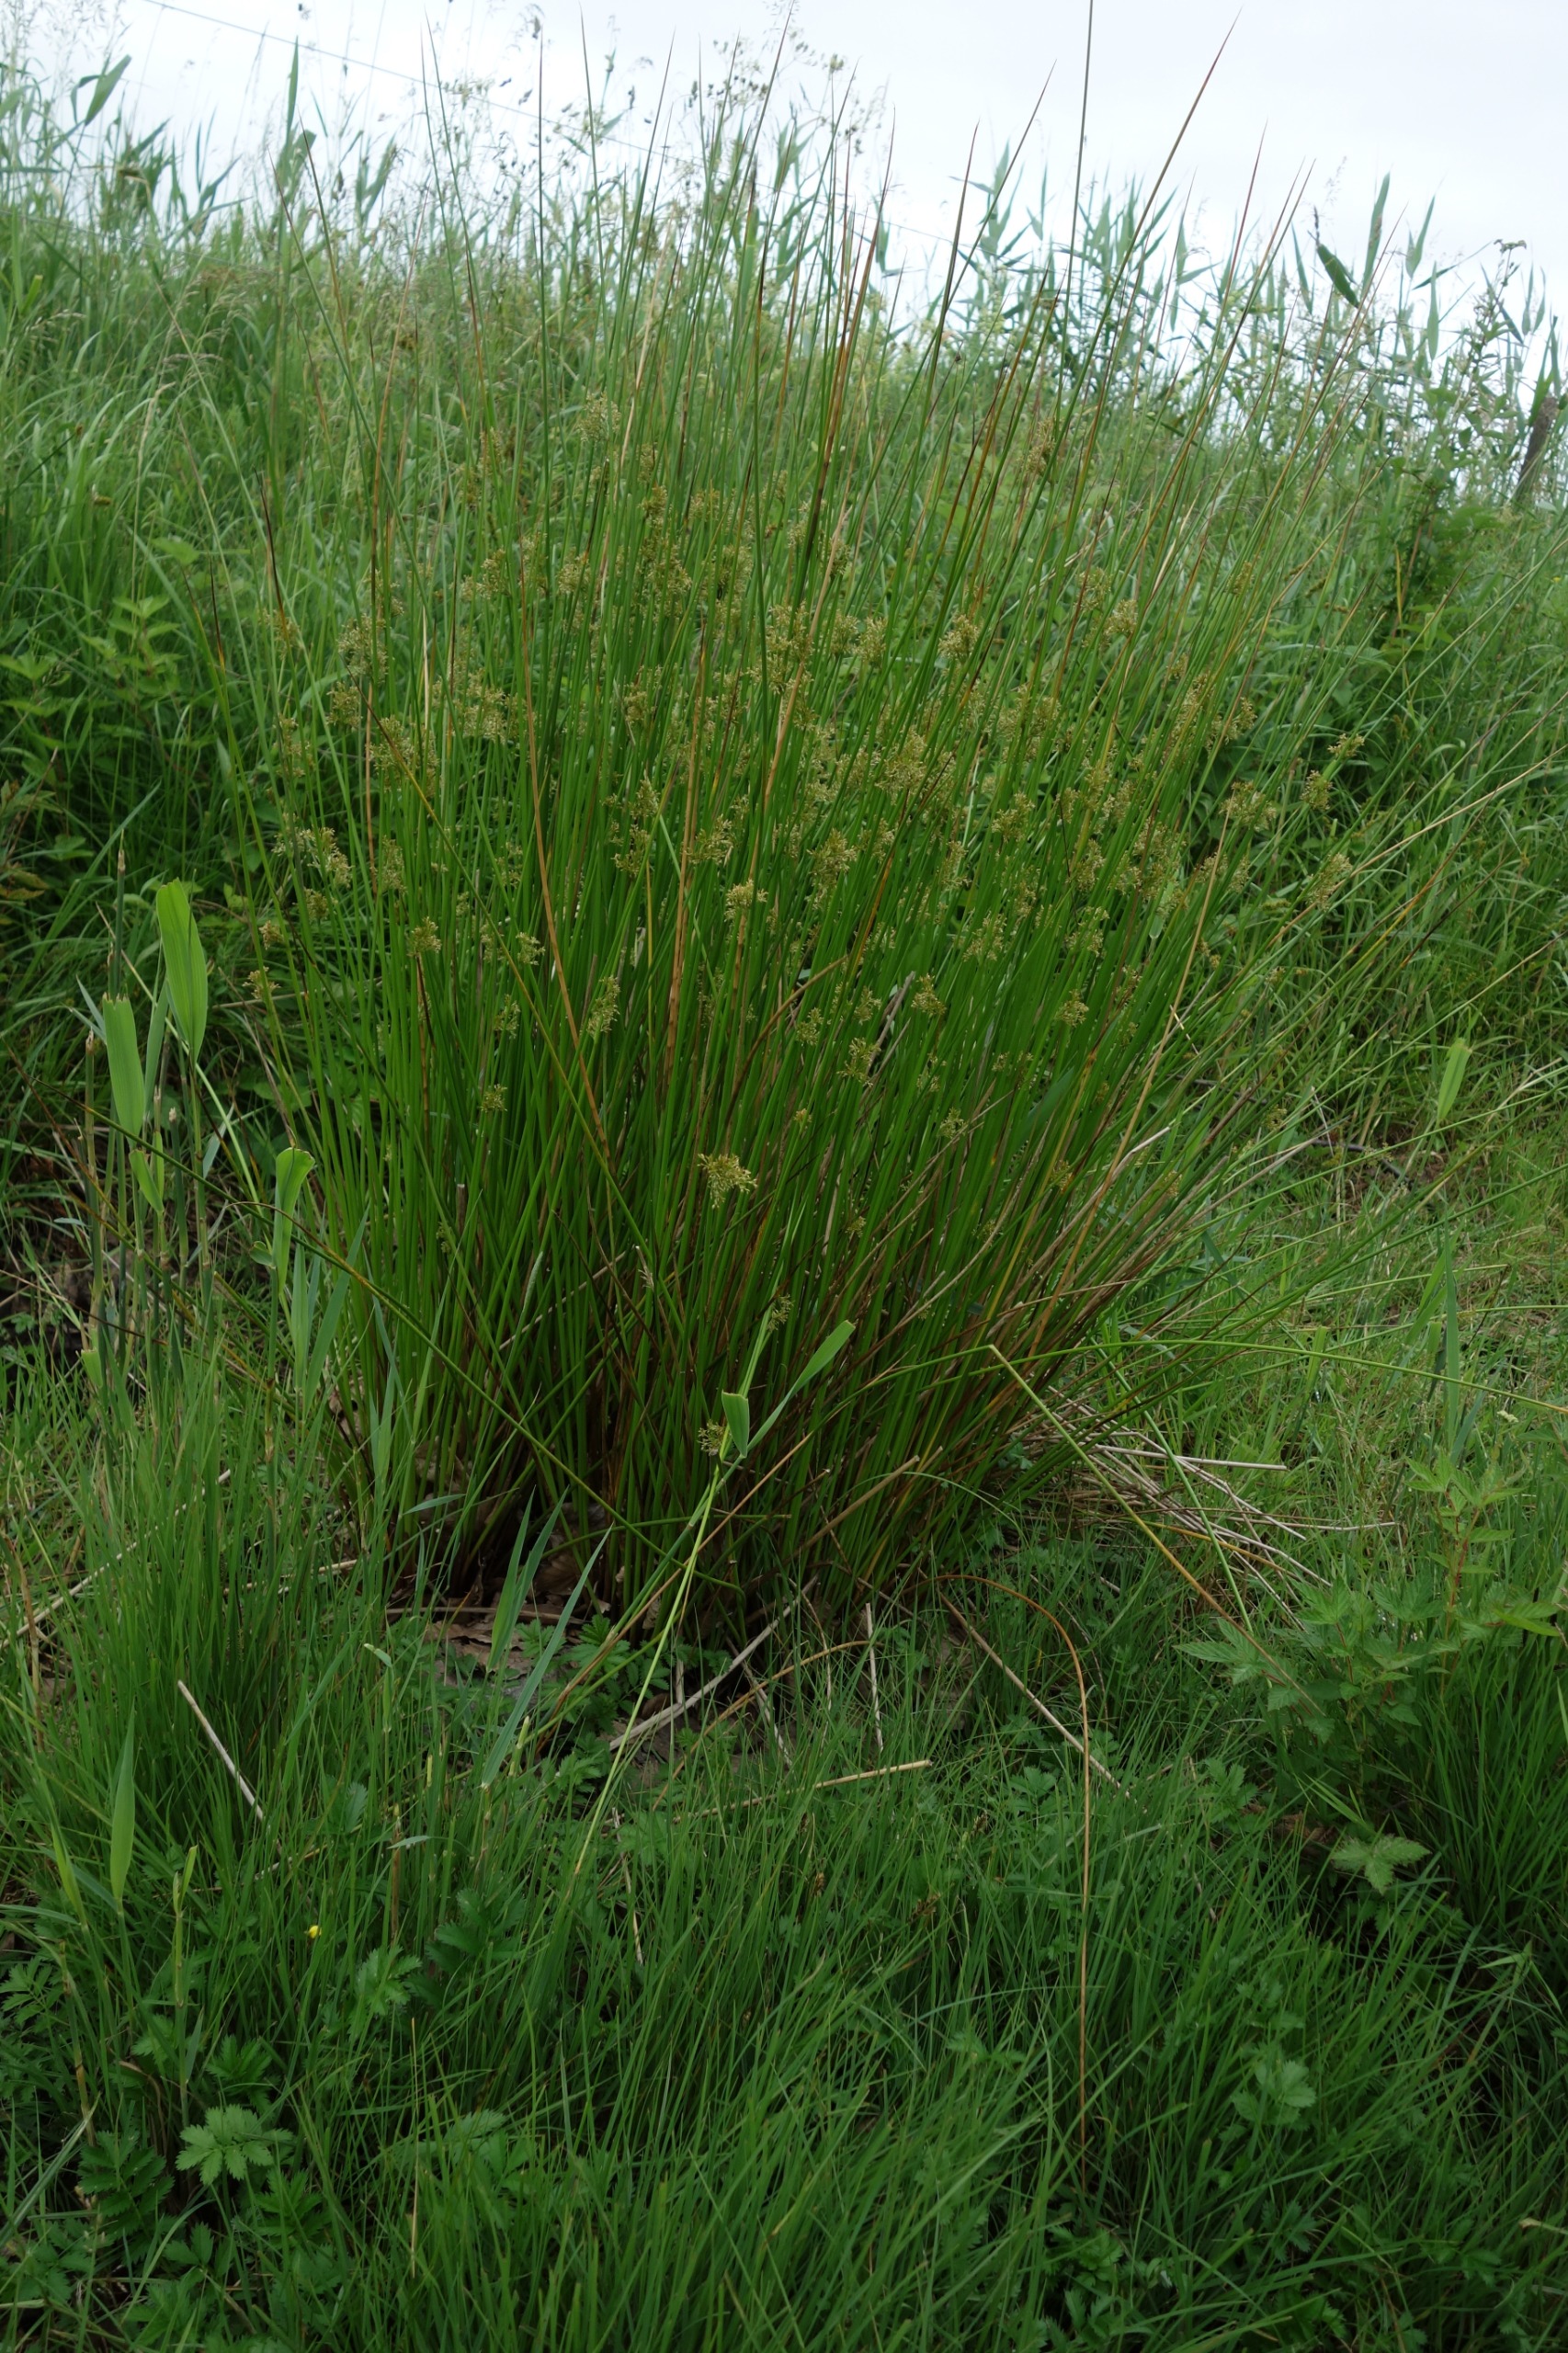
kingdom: Plantae
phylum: Tracheophyta
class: Liliopsida
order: Poales
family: Juncaceae
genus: Juncus
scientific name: Juncus effusus
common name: Lyse-siv
